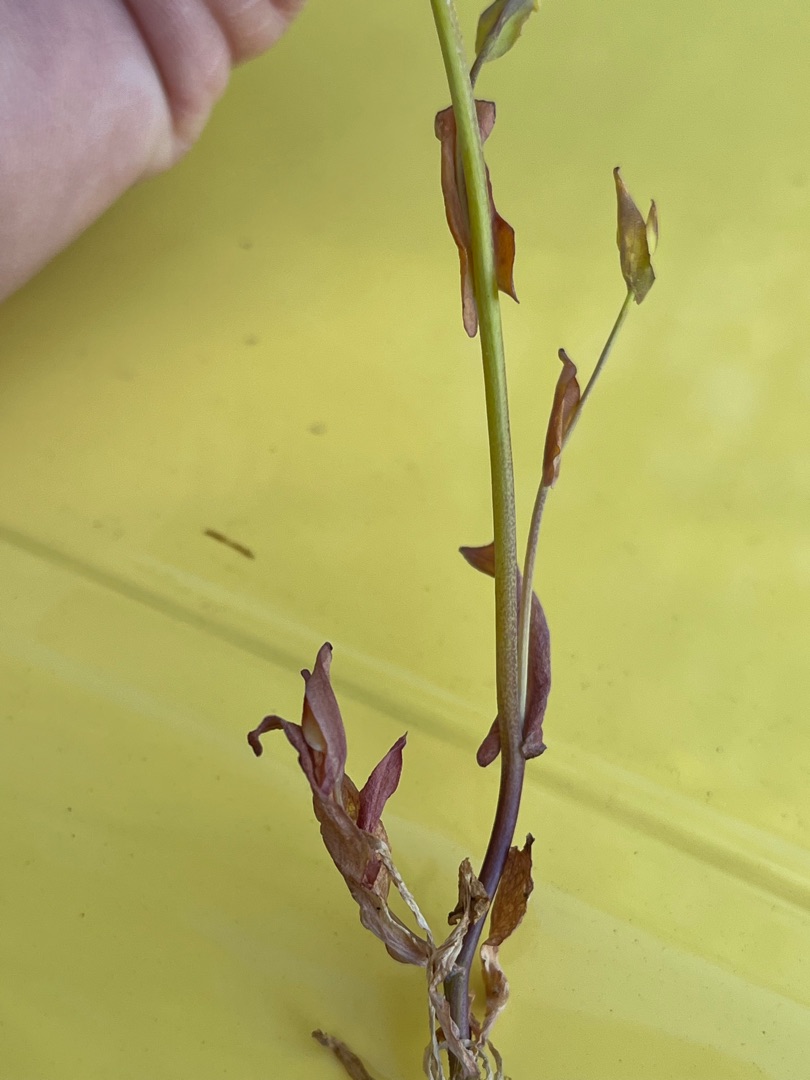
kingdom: Plantae
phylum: Tracheophyta
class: Magnoliopsida
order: Brassicales
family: Brassicaceae
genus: Noccaea
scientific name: Noccaea perfoliata
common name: Hjertebladet pengeurt
